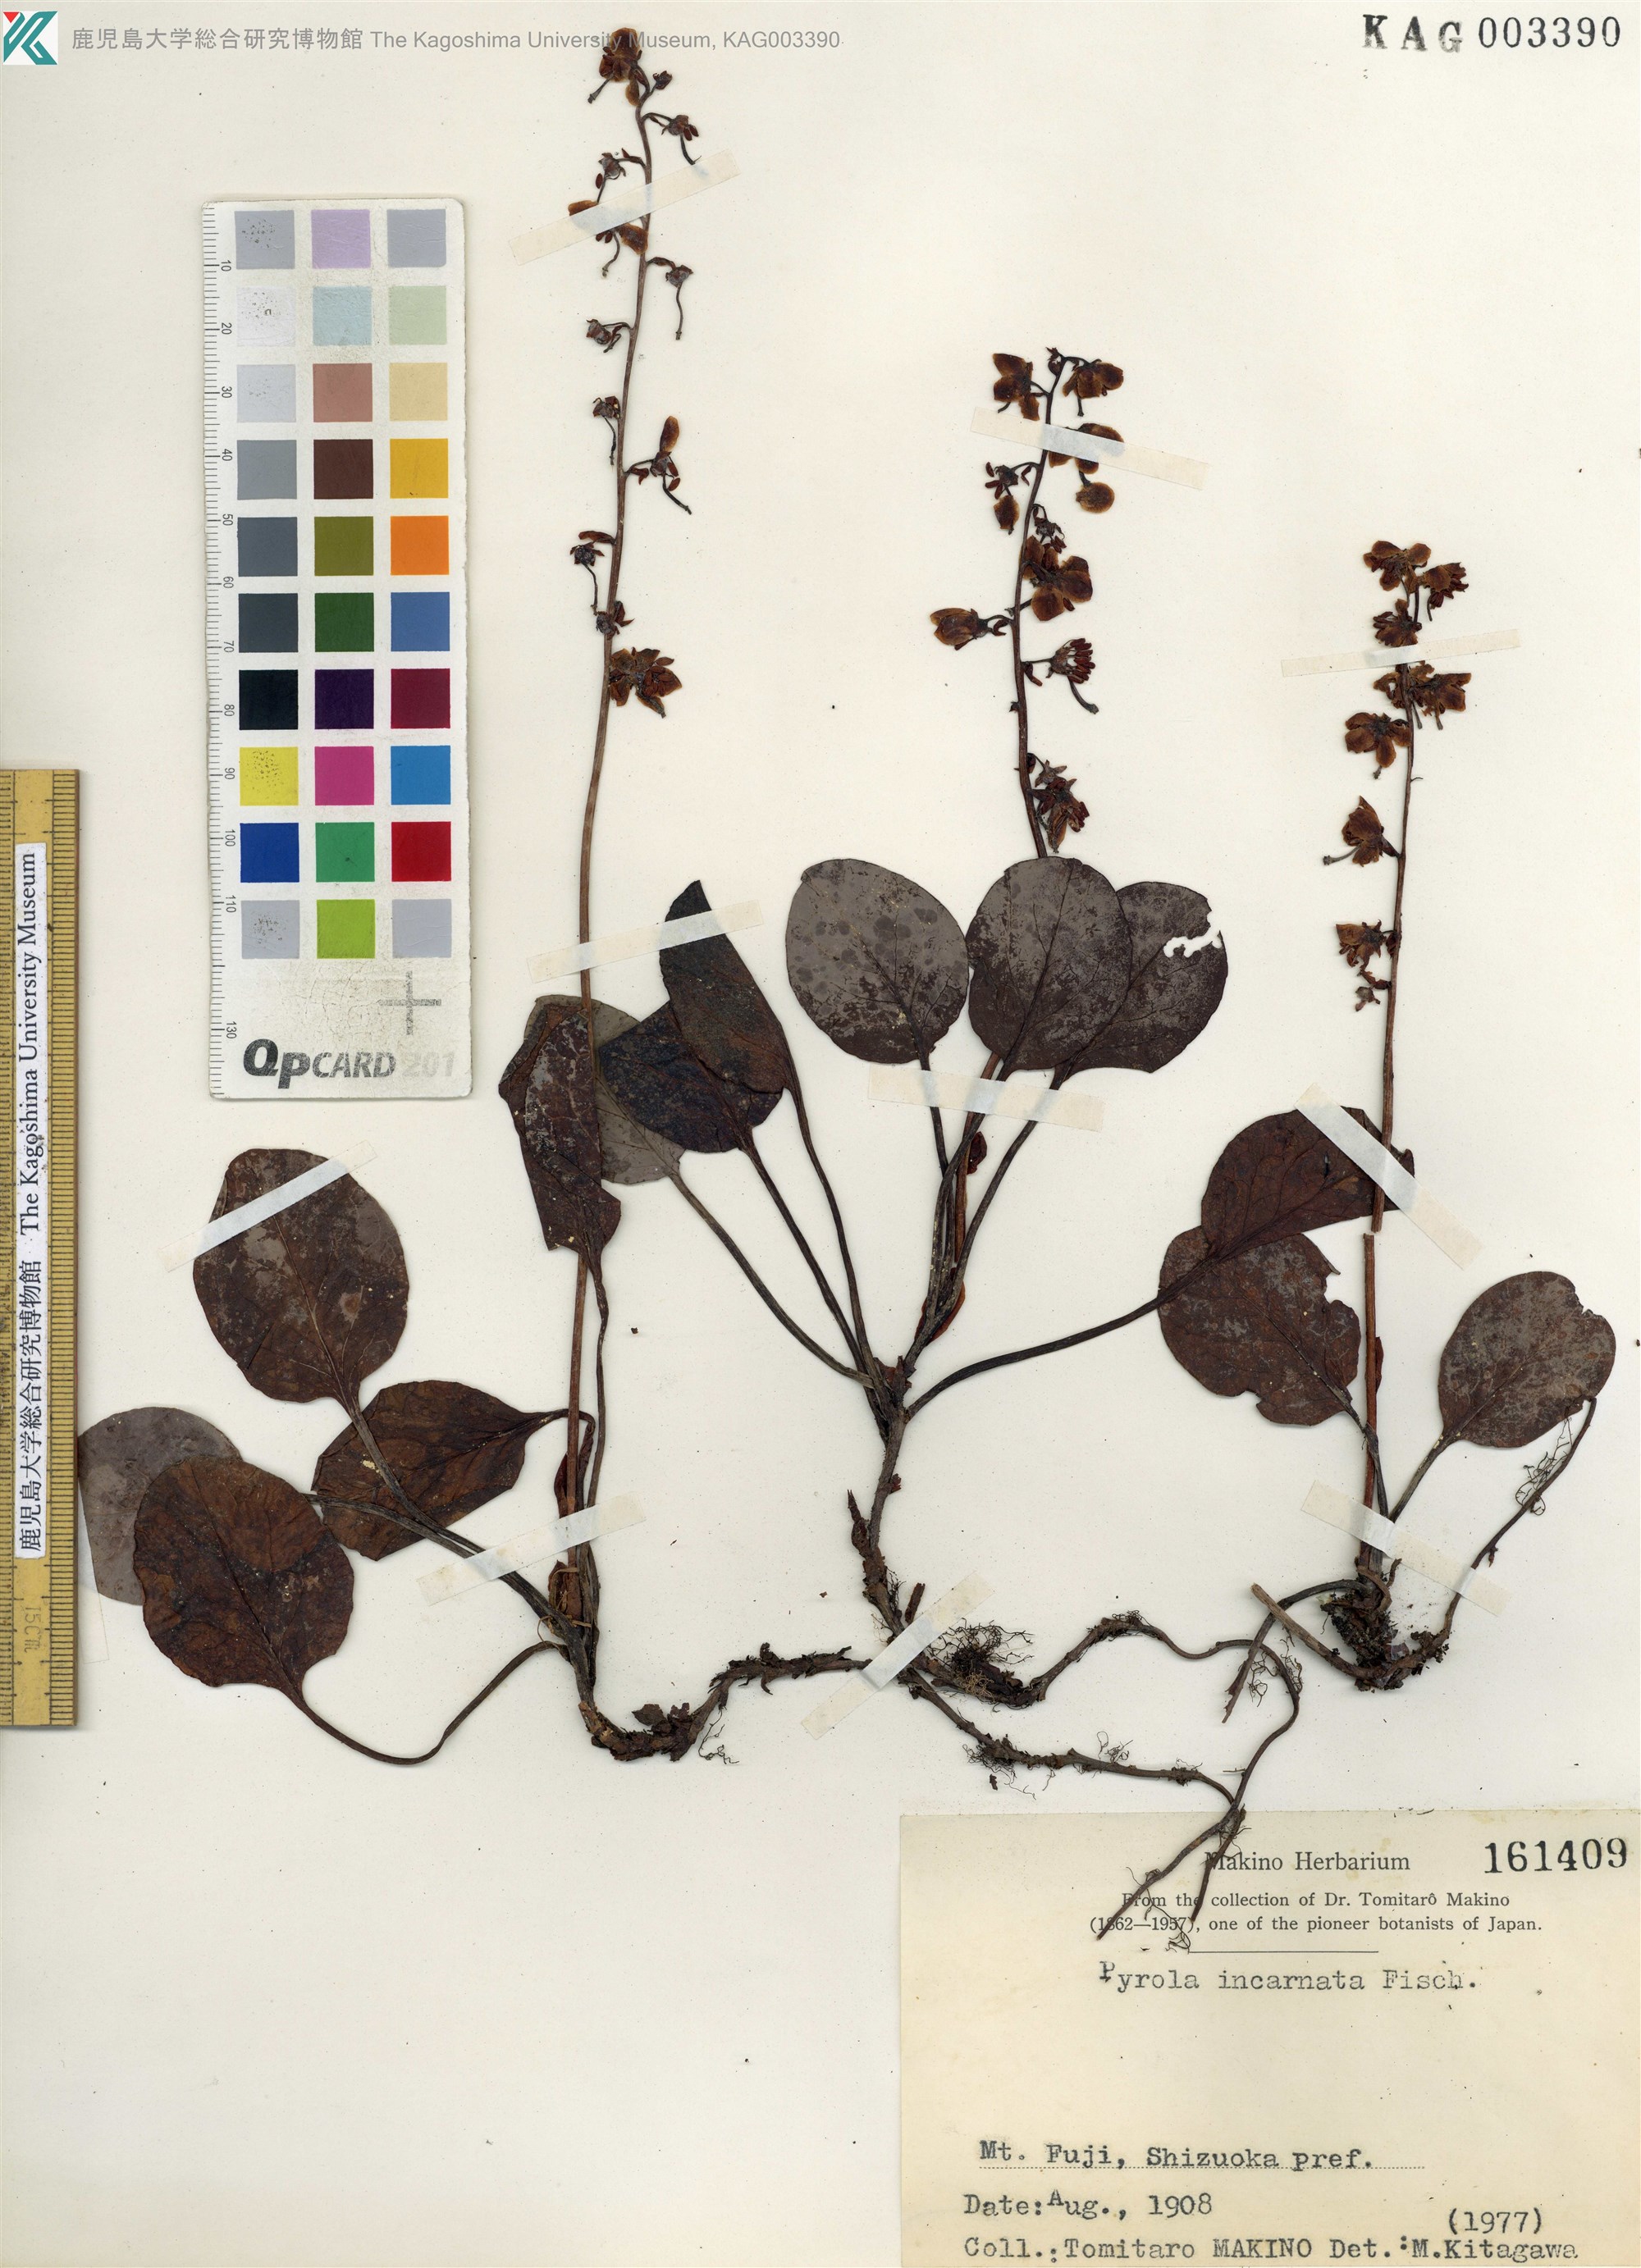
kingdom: Plantae
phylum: Tracheophyta
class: Magnoliopsida
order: Ericales
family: Ericaceae
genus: Pyrola
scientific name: Pyrola asarifolia
